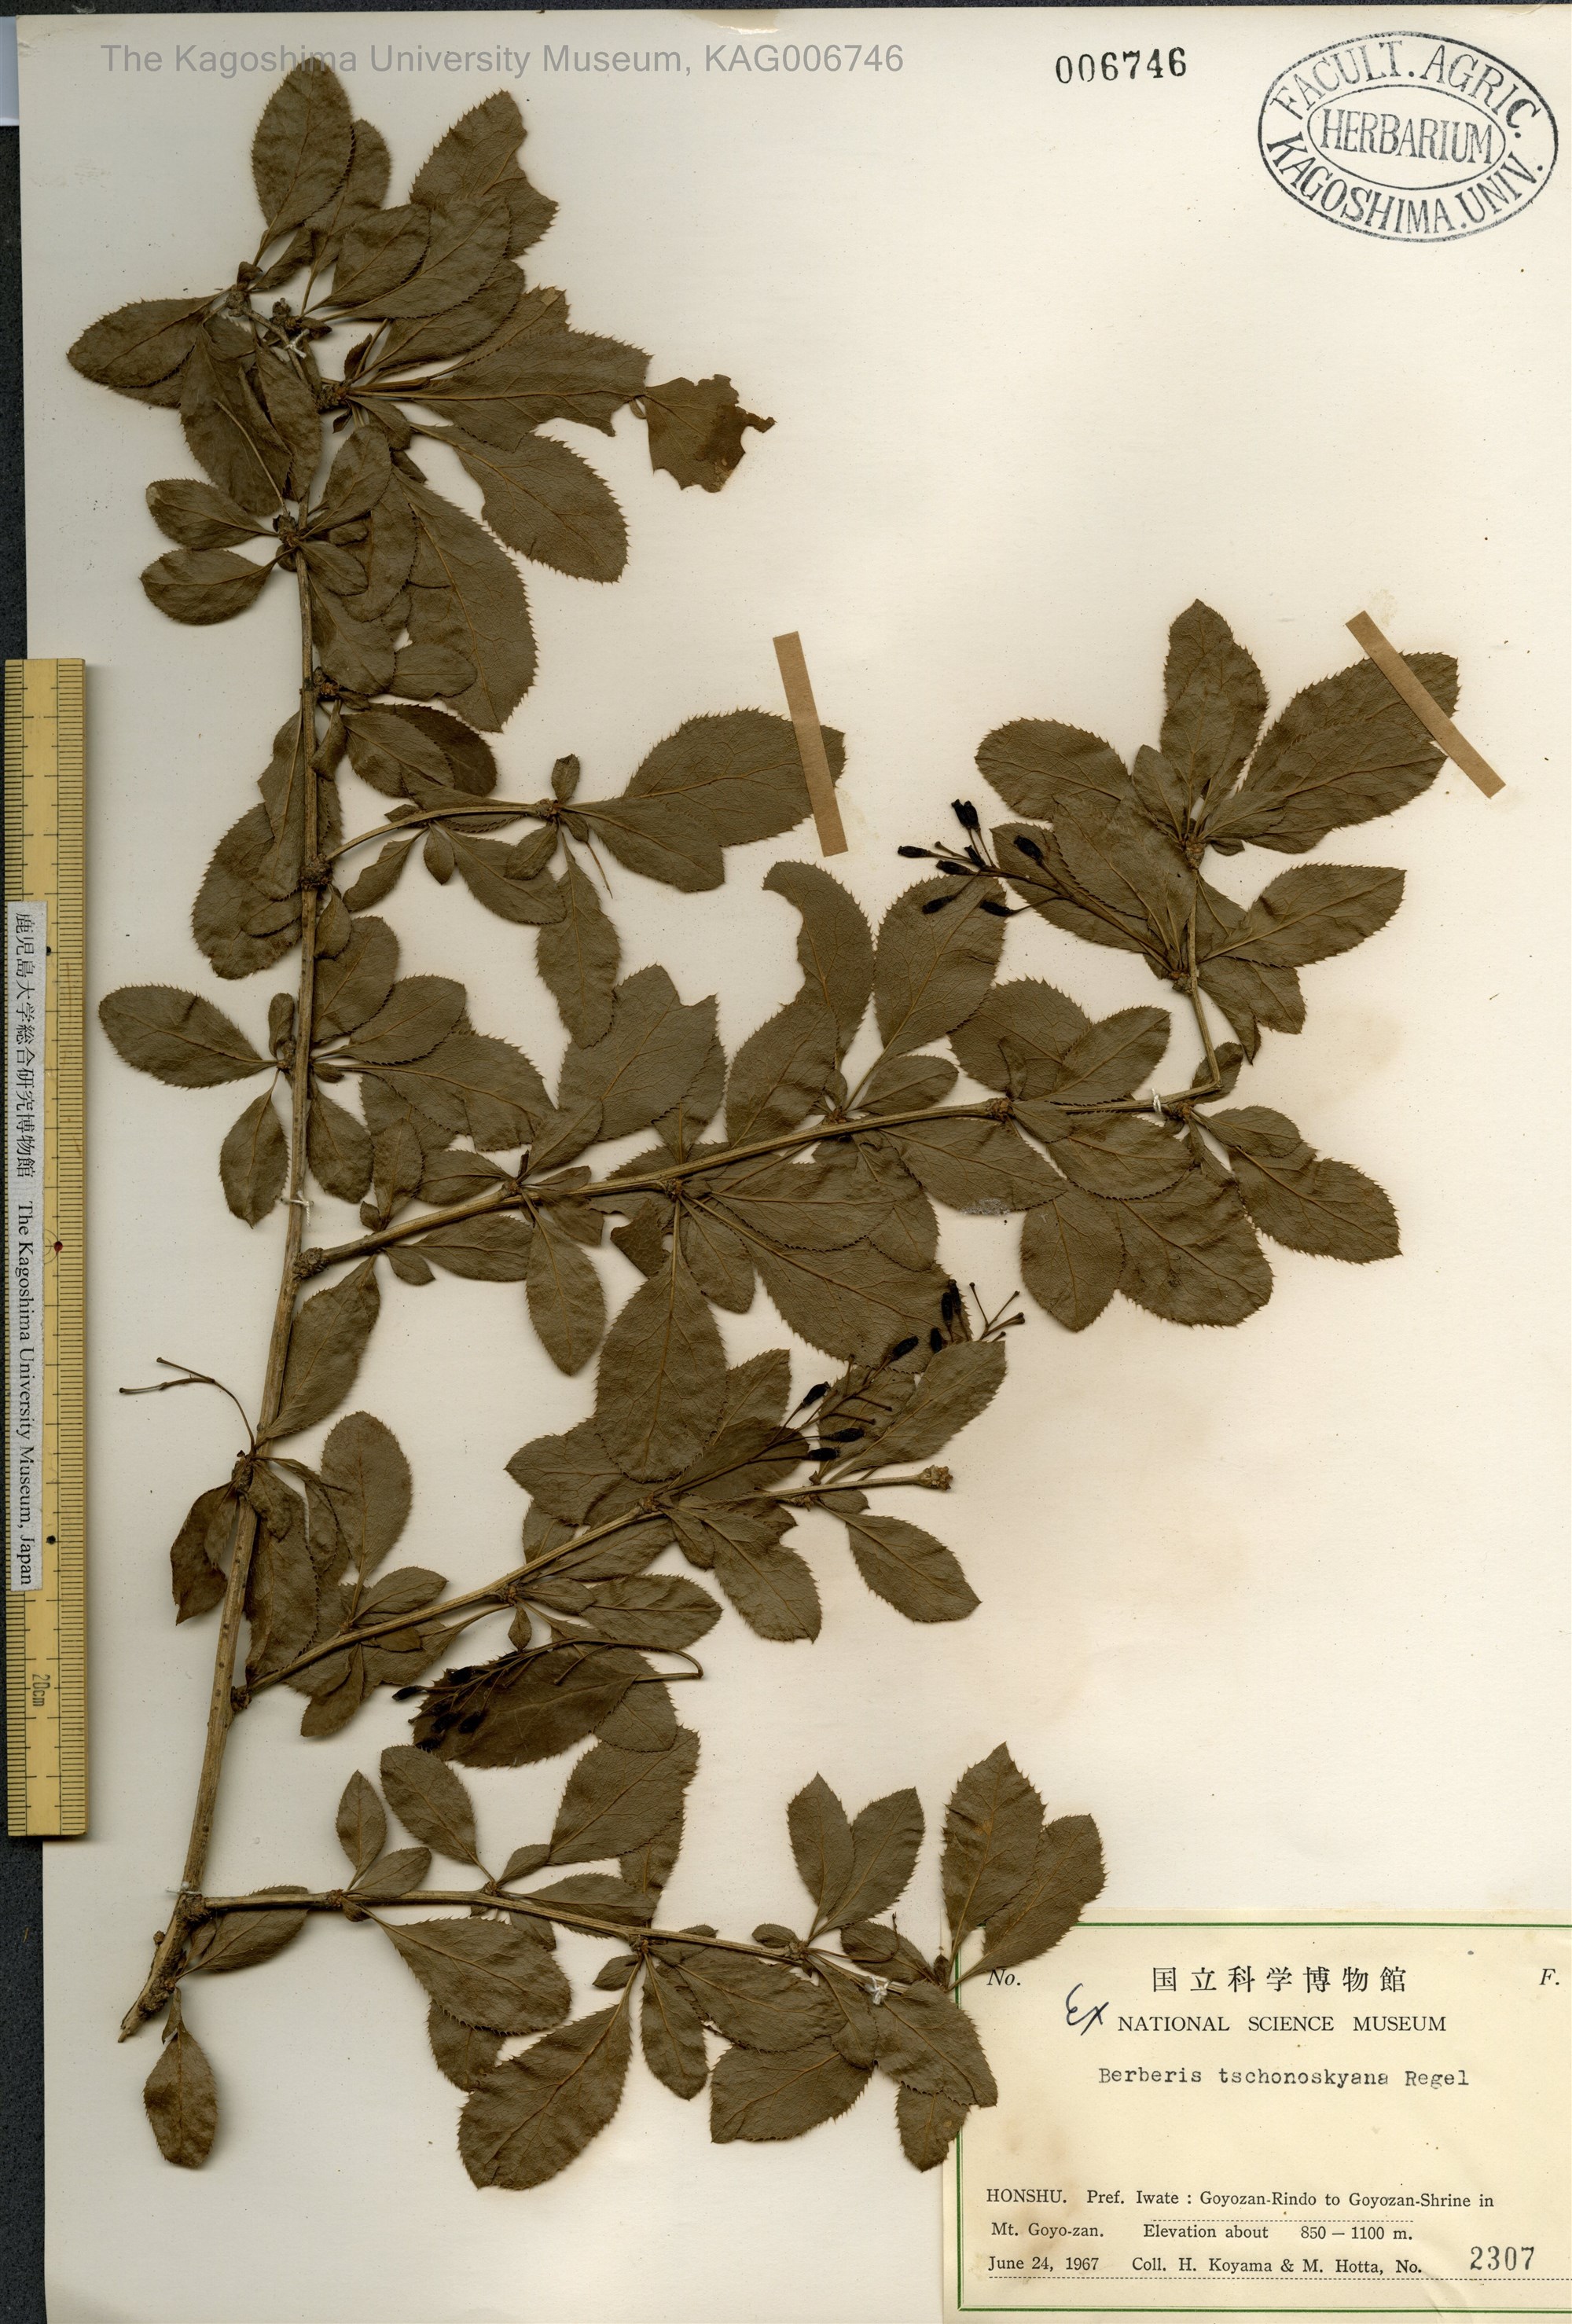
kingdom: Plantae
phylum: Tracheophyta
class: Magnoliopsida
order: Ranunculales
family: Berberidaceae
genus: Berberis
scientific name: Berberis tschonoskyana
